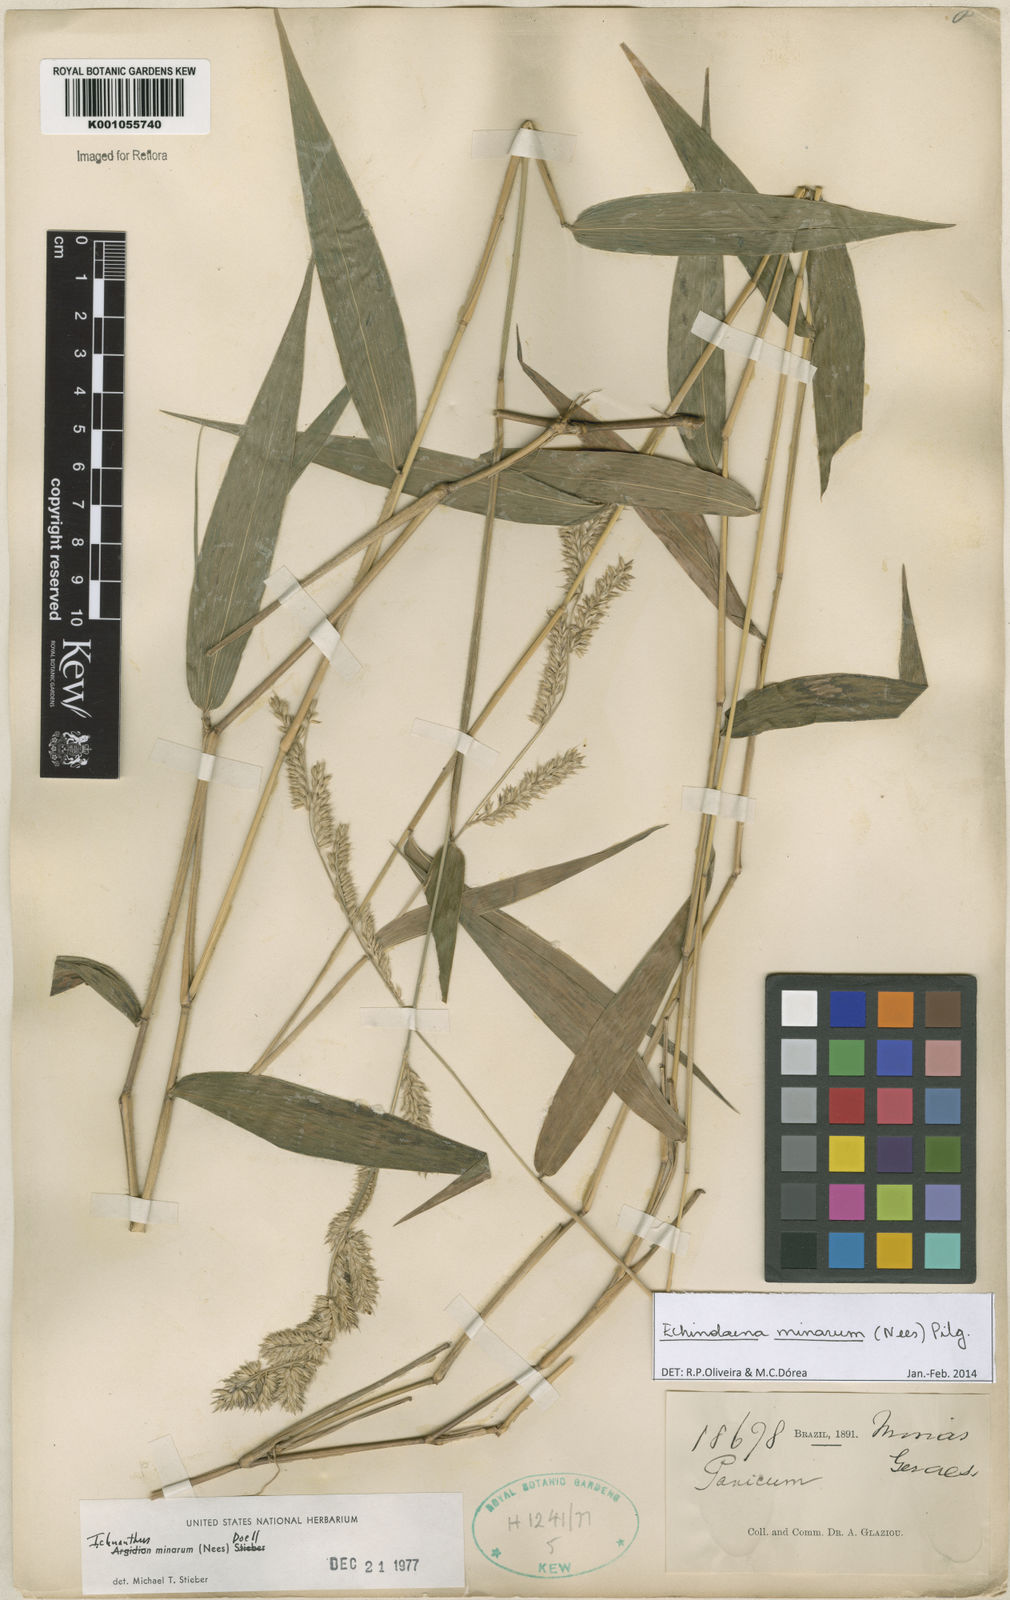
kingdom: Plantae
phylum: Tracheophyta
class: Liliopsida
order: Poales
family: Poaceae
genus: Oedochloa
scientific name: Oedochloa minarum
